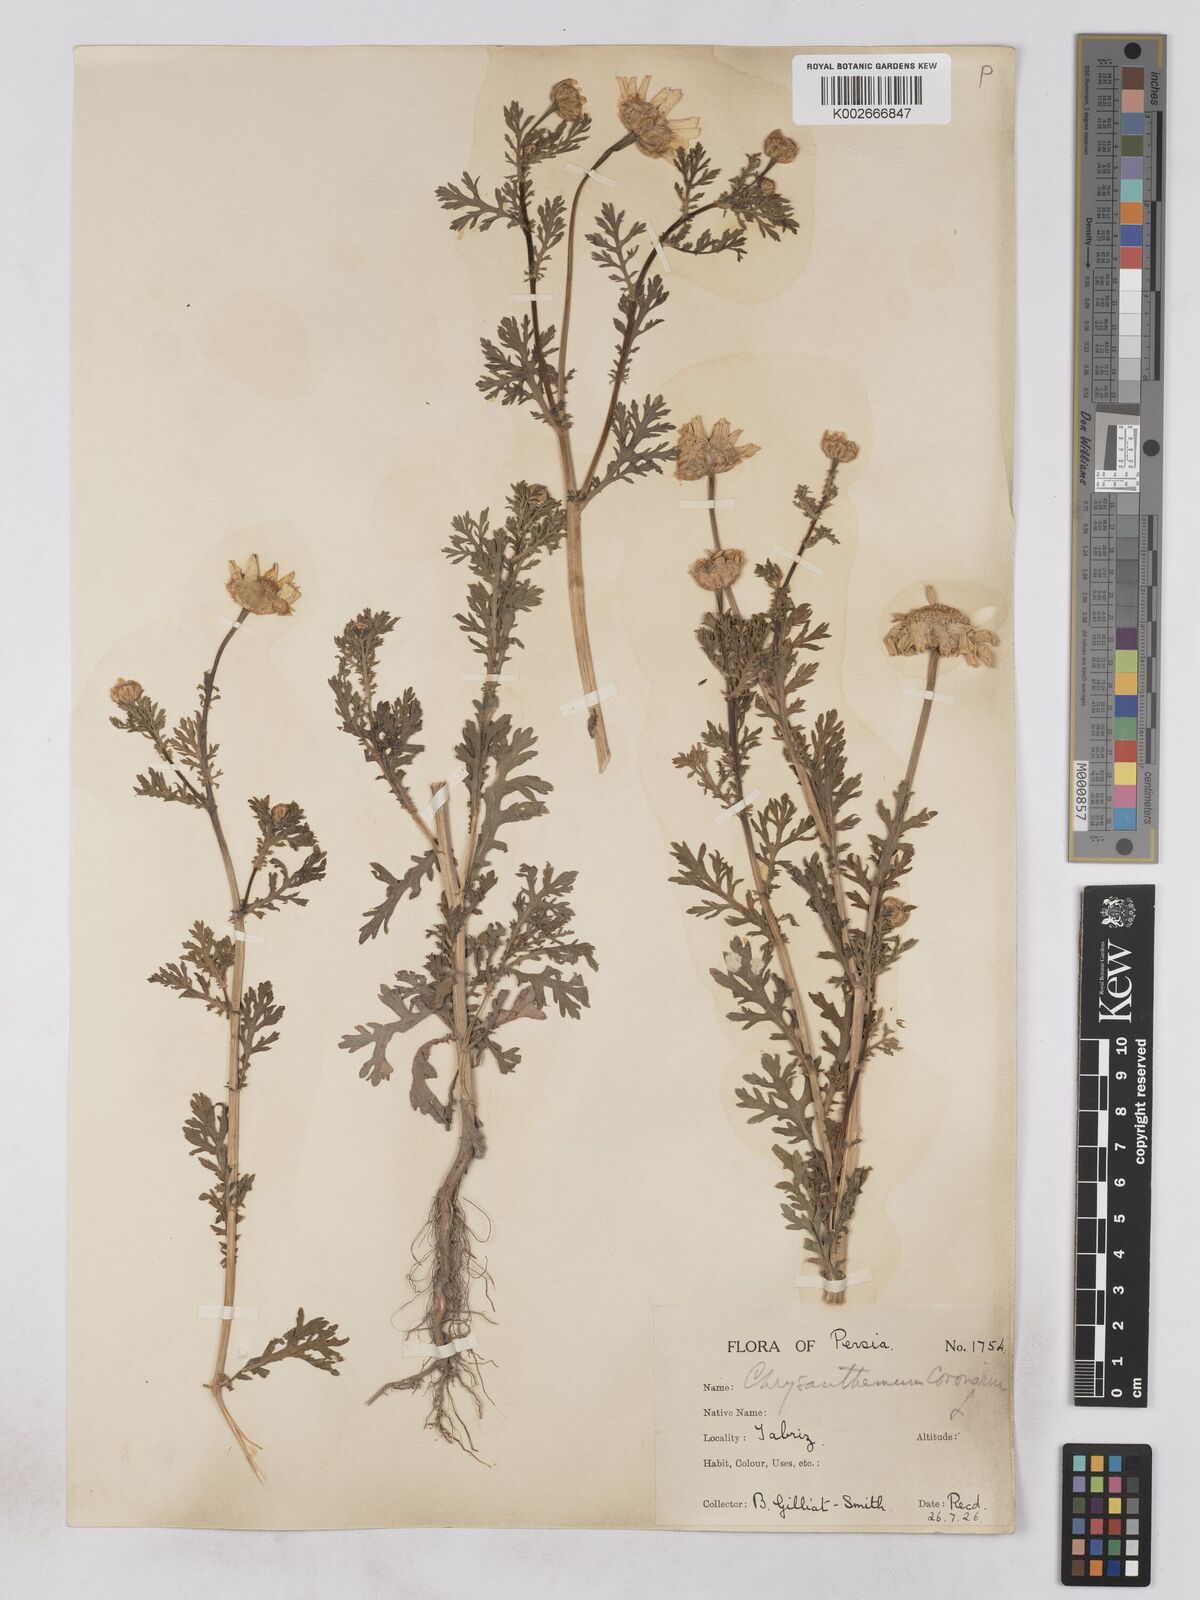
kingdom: Plantae
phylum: Tracheophyta
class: Magnoliopsida
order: Asterales
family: Asteraceae
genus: Glebionis
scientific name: Glebionis coronaria
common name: Crowndaisy
